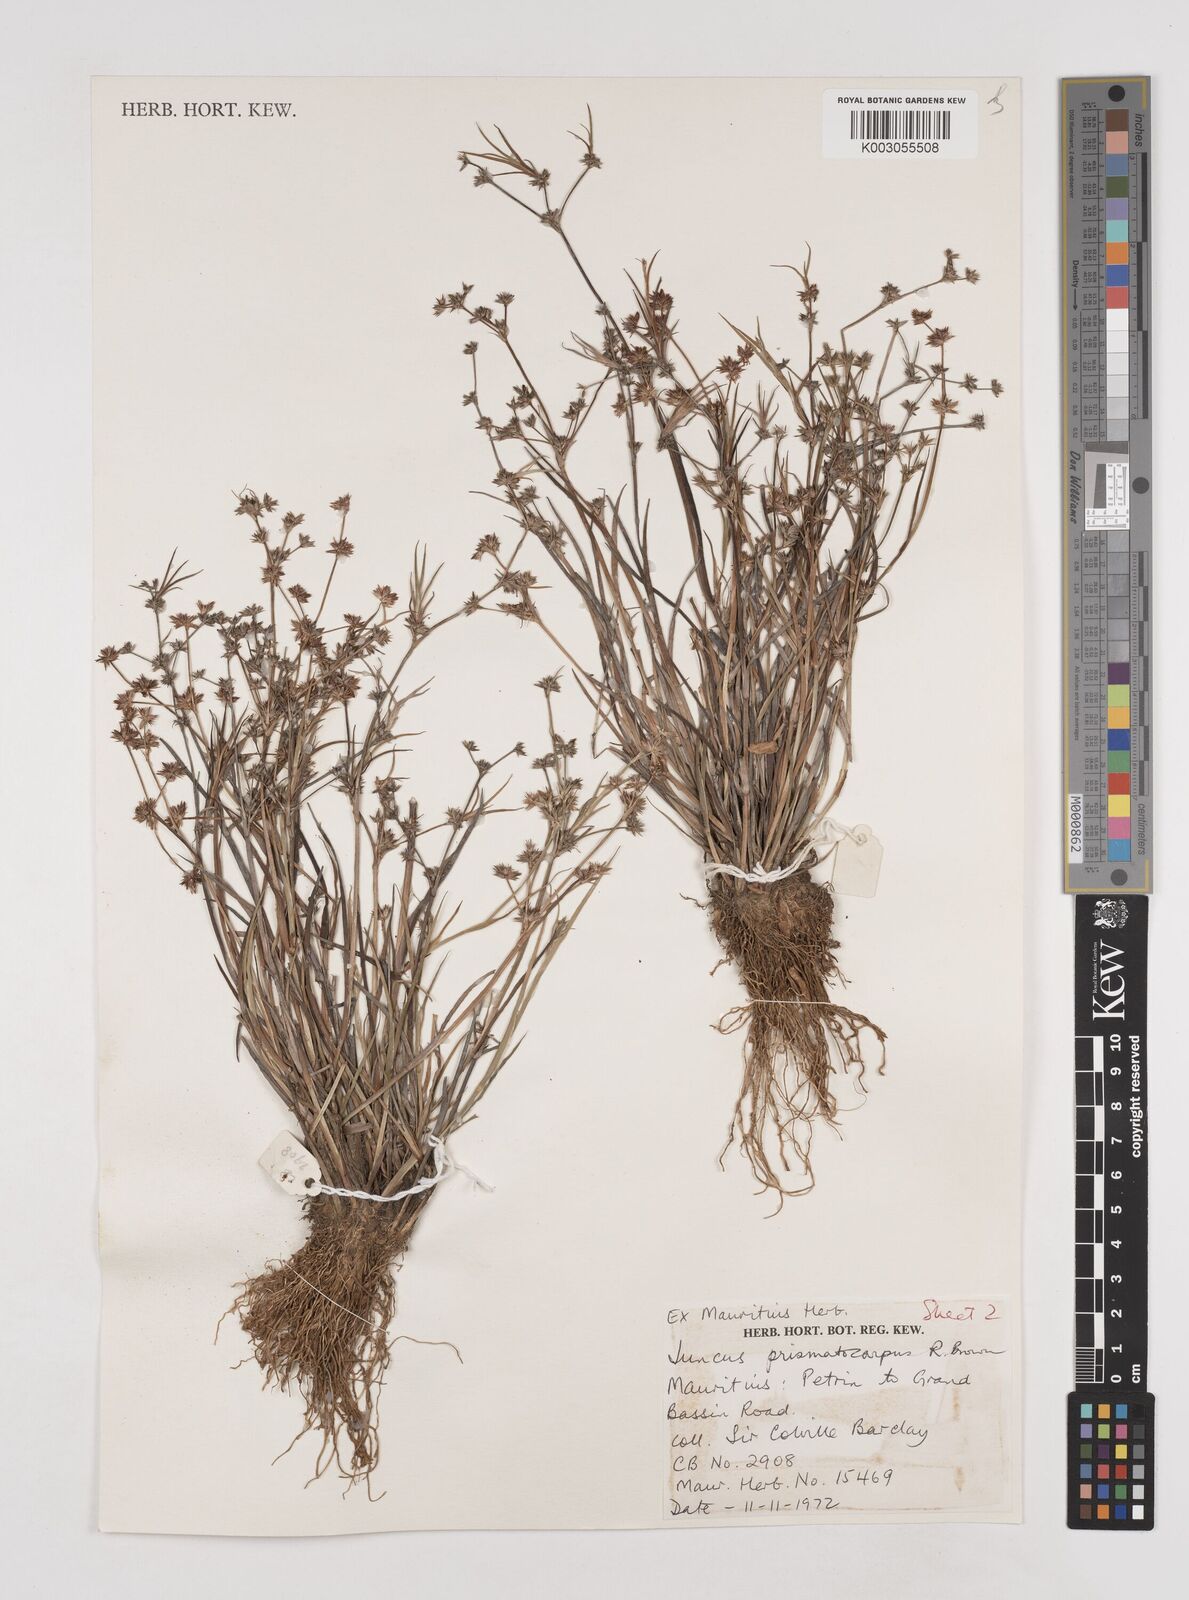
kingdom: Plantae
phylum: Tracheophyta
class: Liliopsida
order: Poales
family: Juncaceae
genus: Juncus
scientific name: Juncus prismatocarpus
